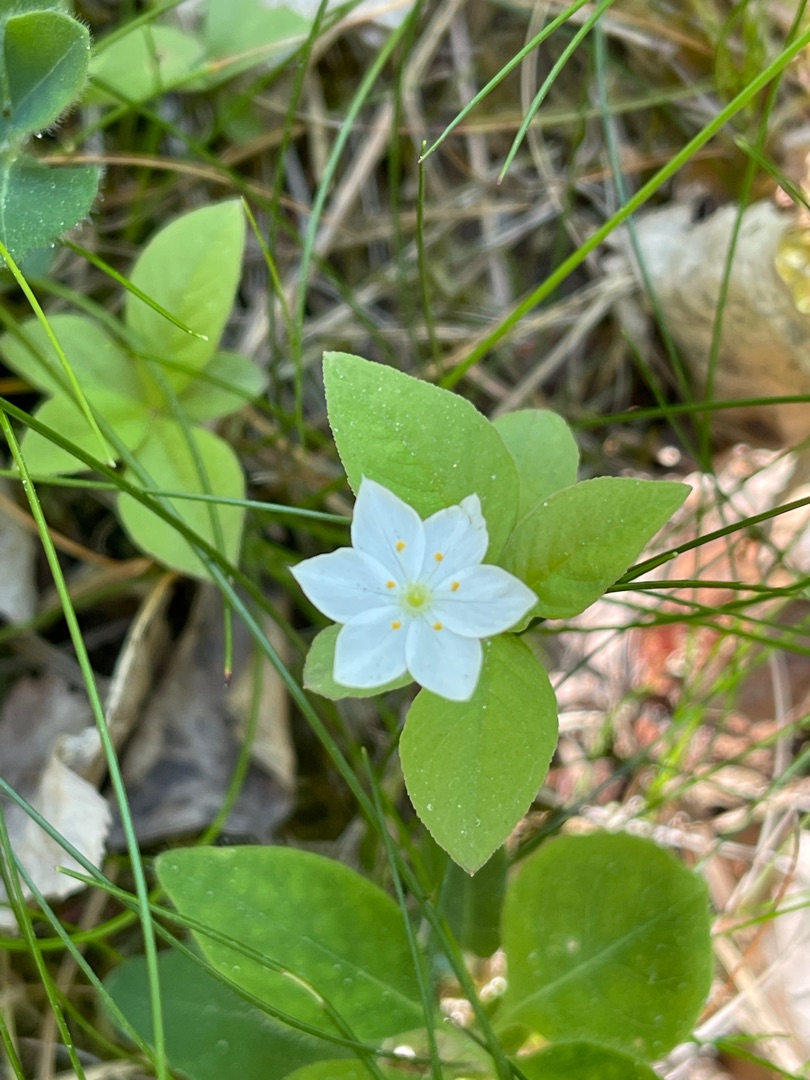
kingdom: Plantae
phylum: Tracheophyta
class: Magnoliopsida
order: Ericales
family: Primulaceae
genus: Lysimachia
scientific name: Lysimachia europaea
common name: Skovstjerne
